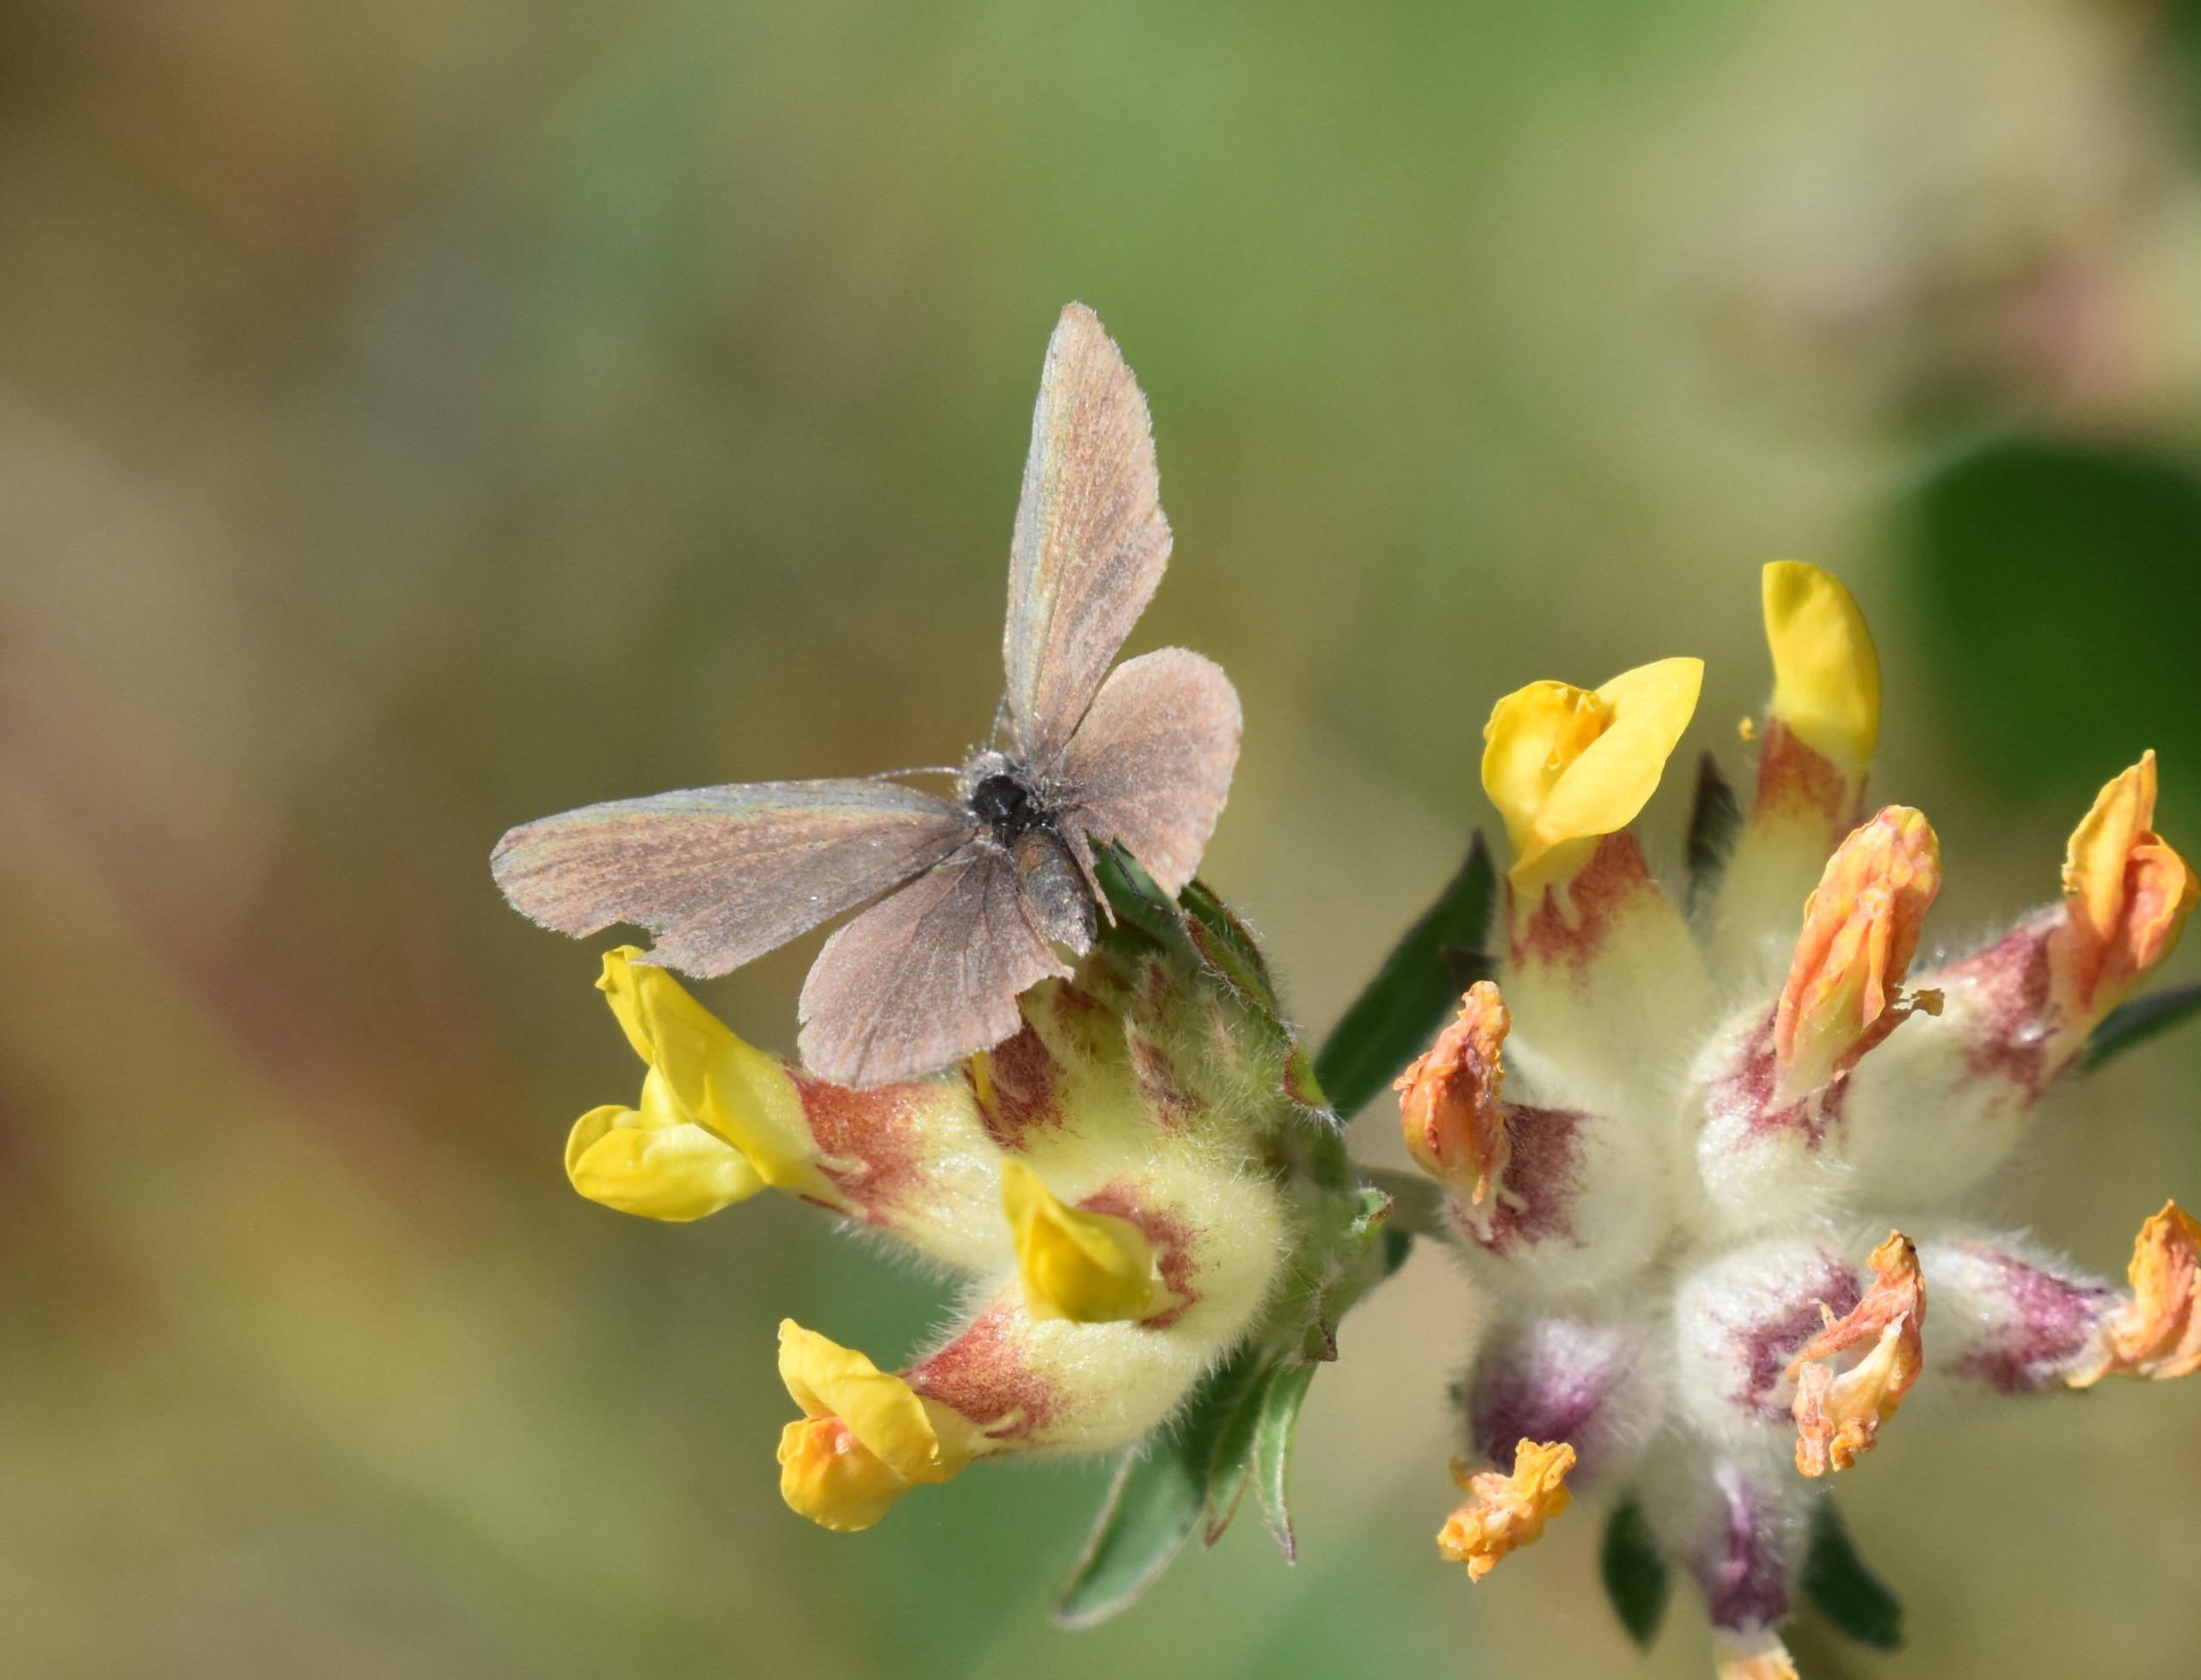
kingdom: Animalia
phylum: Arthropoda
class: Insecta
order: Lepidoptera
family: Lycaenidae
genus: Cupido
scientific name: Cupido minimus
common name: Dværgblåfugl
